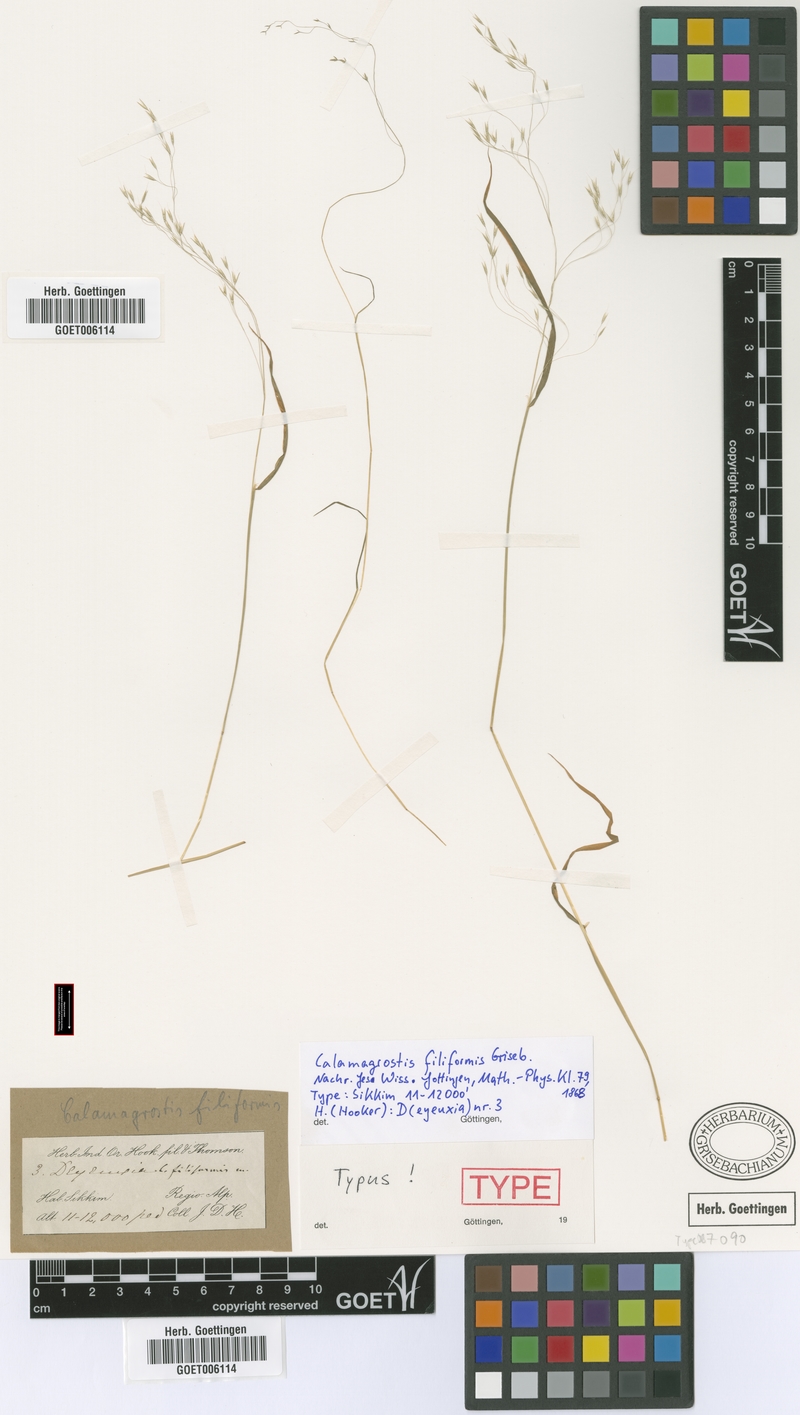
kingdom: Plantae
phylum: Tracheophyta
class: Liliopsida
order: Poales
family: Poaceae
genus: Calamagrostis
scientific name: Calamagrostis filiformis
